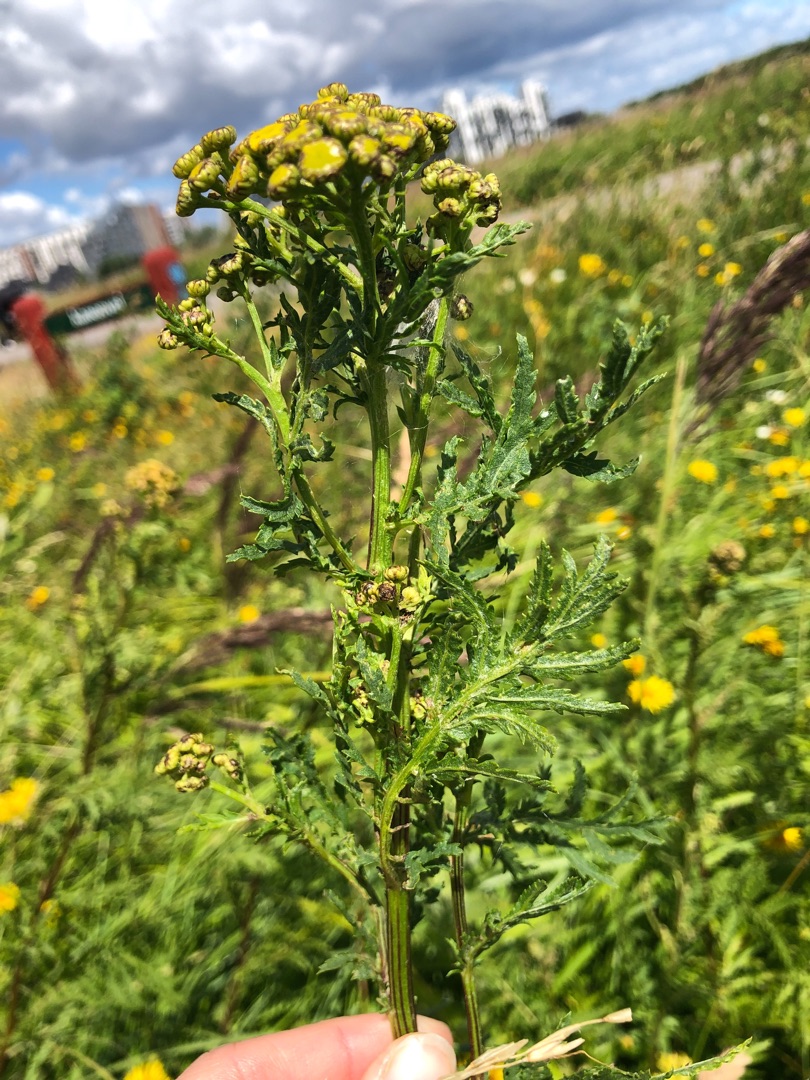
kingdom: Plantae
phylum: Tracheophyta
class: Magnoliopsida
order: Asterales
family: Asteraceae
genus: Tanacetum
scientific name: Tanacetum vulgare
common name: Rejnfan
